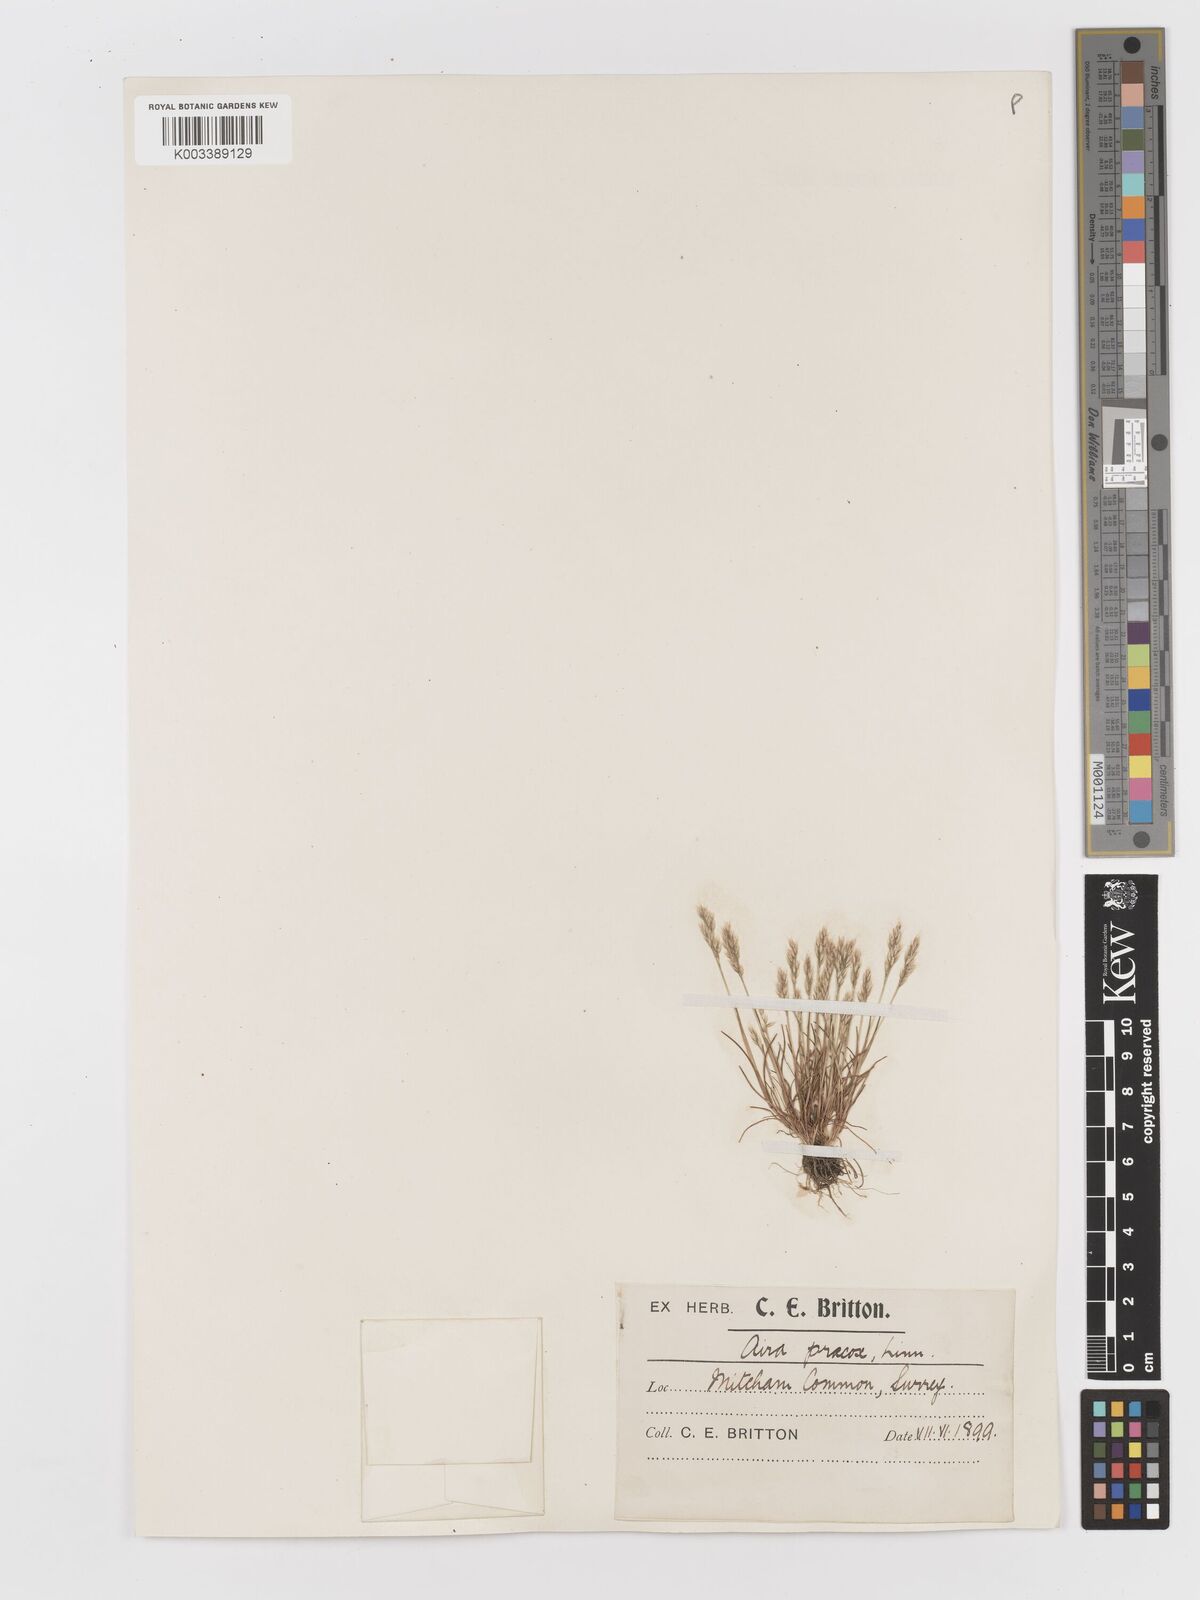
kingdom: Plantae
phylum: Tracheophyta
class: Liliopsida
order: Poales
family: Poaceae
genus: Aira
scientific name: Aira praecox
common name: Early hair-grass
